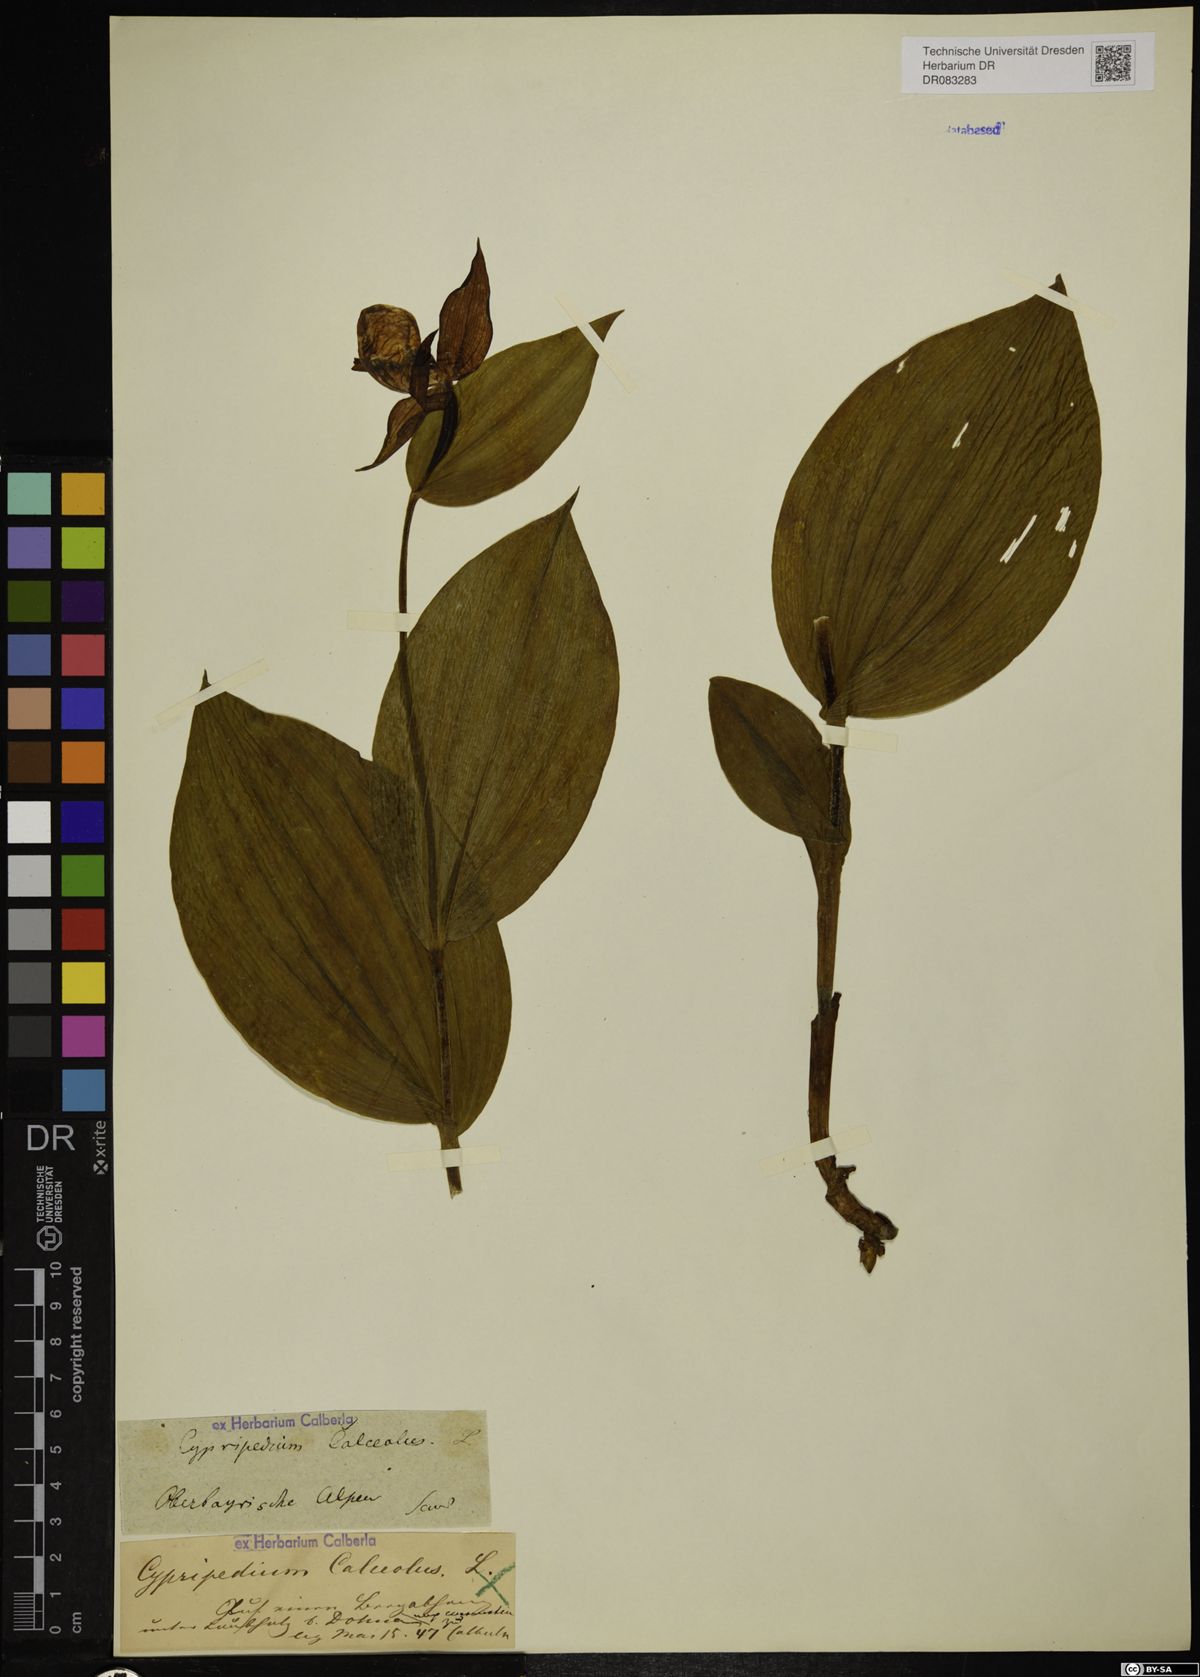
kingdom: Plantae
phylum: Tracheophyta
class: Liliopsida
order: Asparagales
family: Orchidaceae
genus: Cypripedium
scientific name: Cypripedium calceolus
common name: Lady's-slipper
